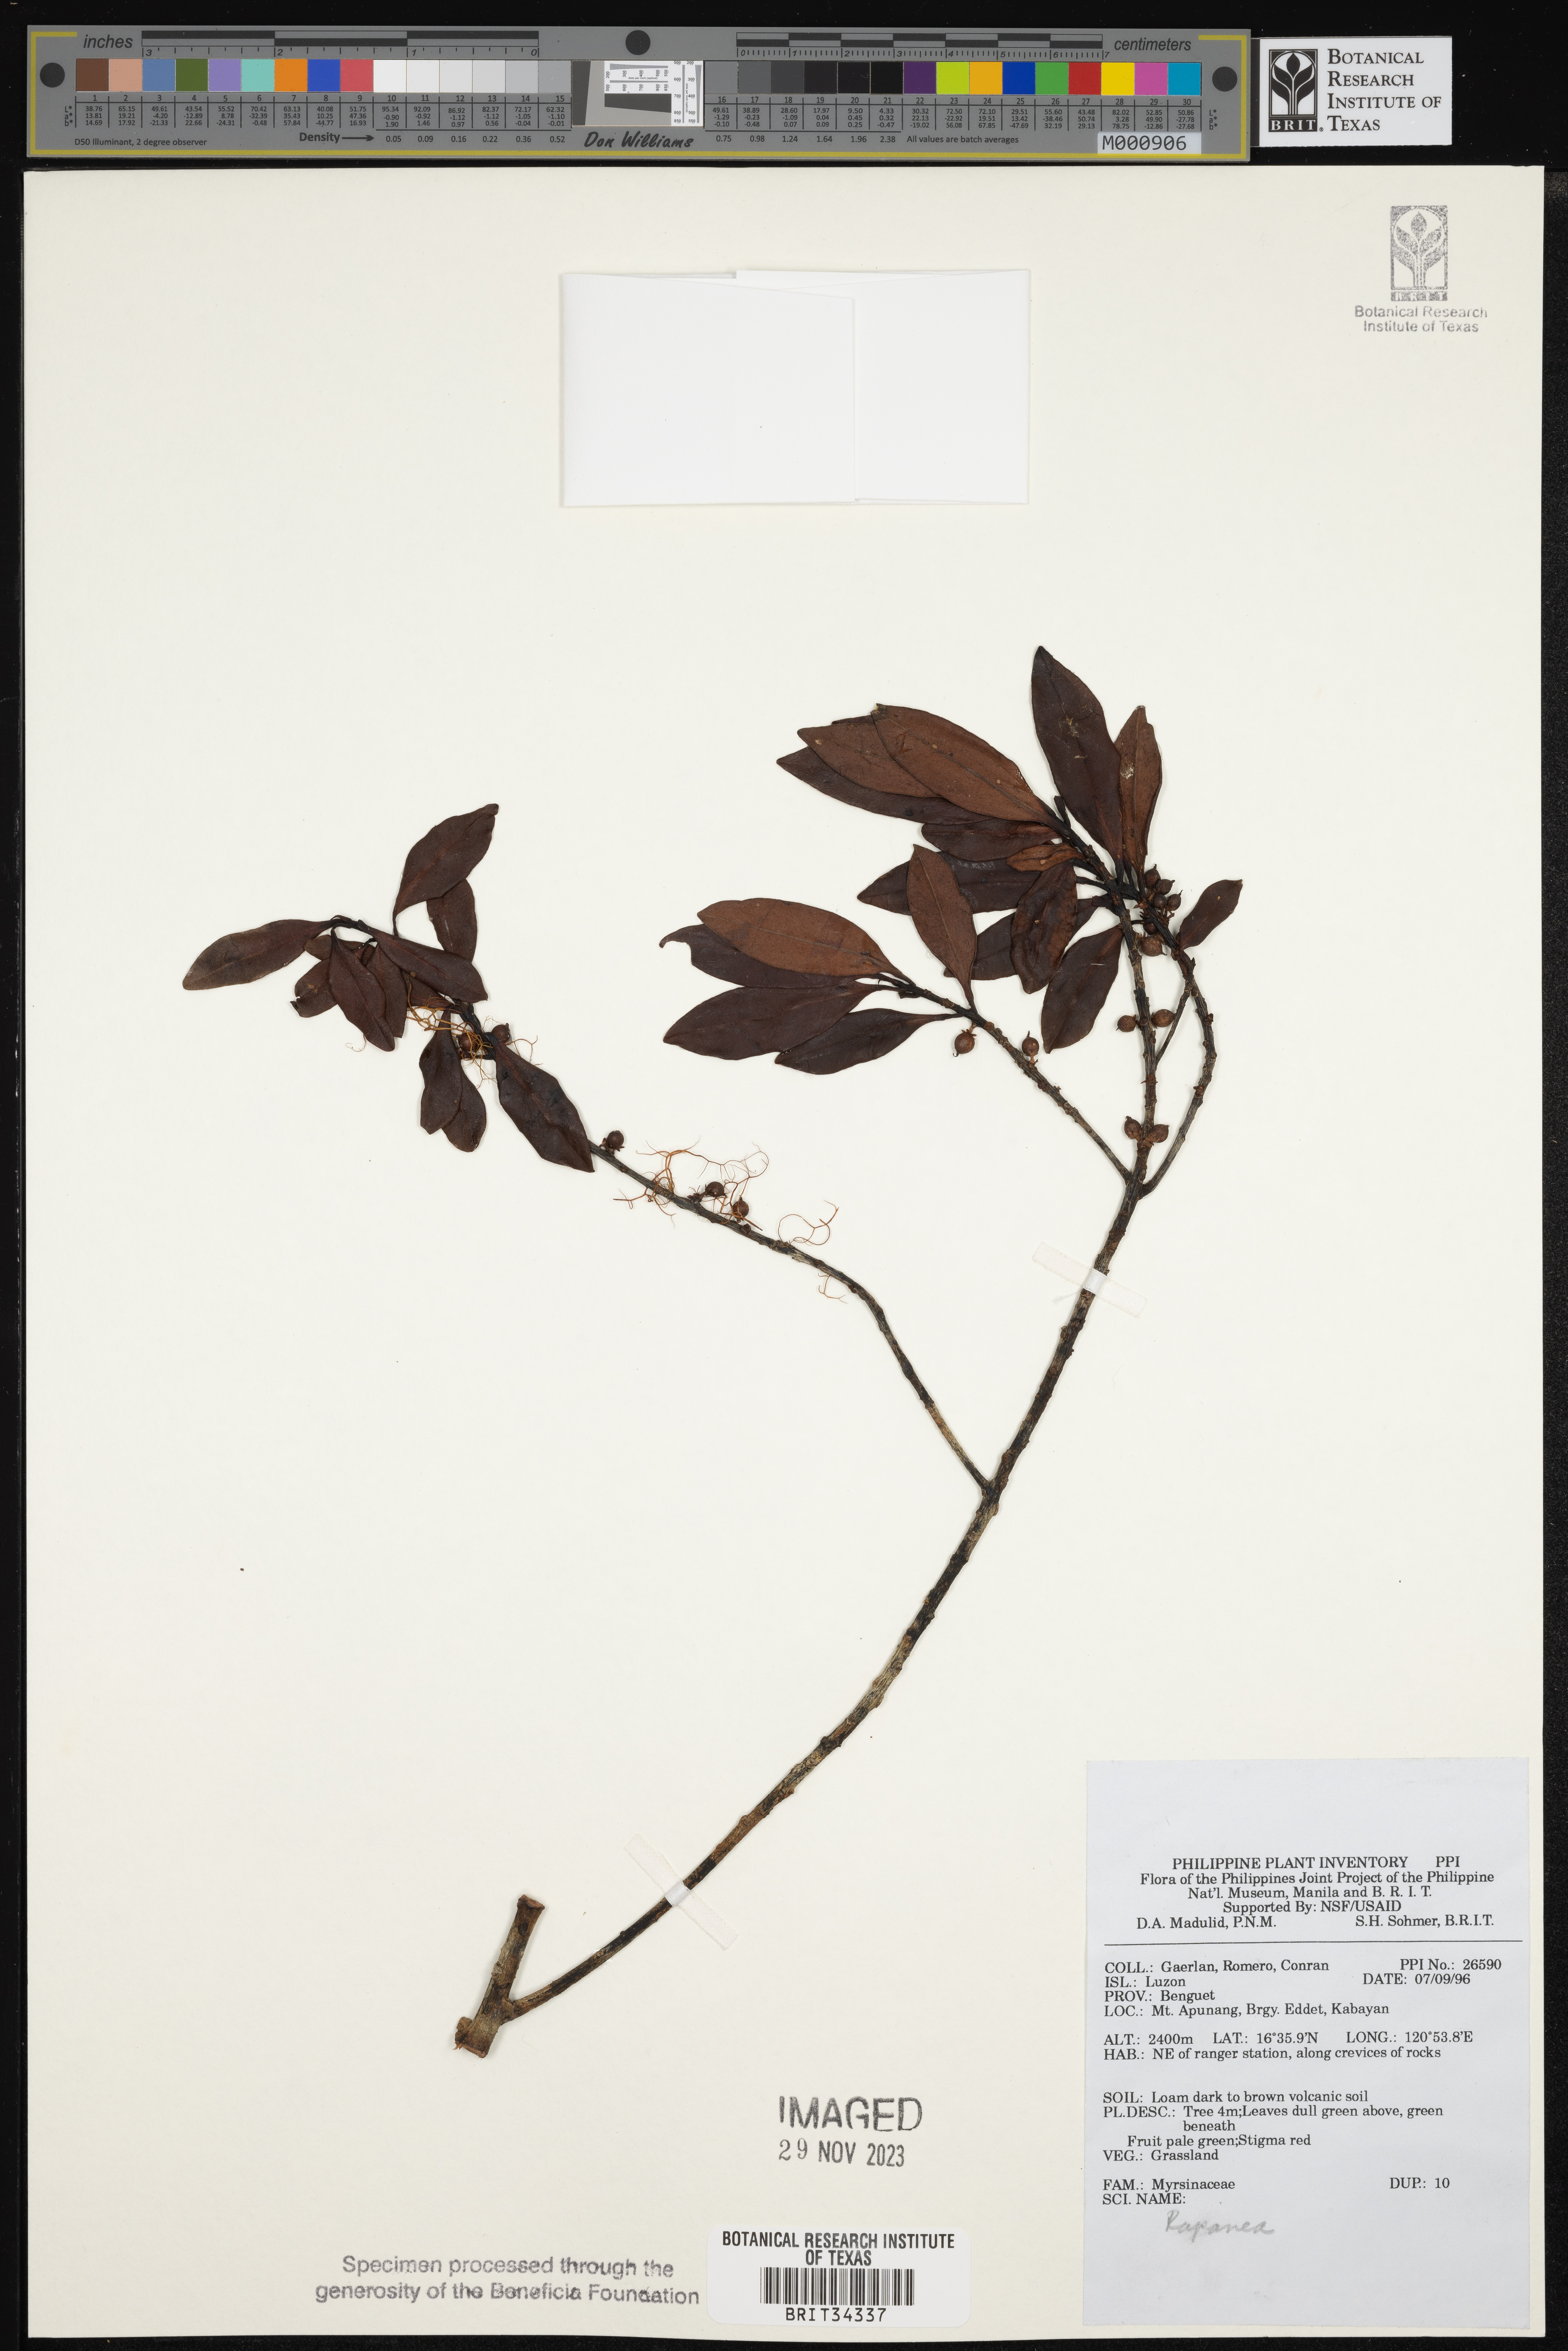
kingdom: Plantae
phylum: Tracheophyta
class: Magnoliopsida
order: Ericales
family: Primulaceae
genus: Myrsine
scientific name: Myrsine
